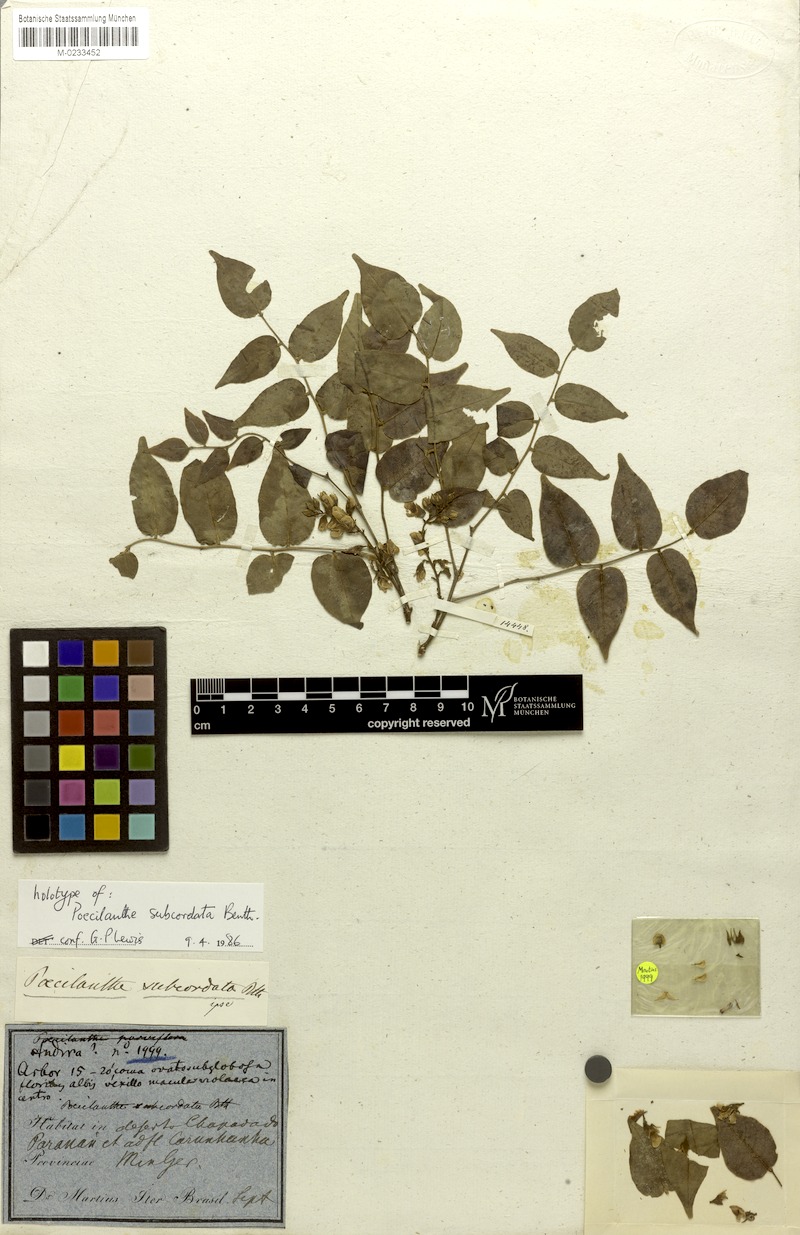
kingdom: Plantae
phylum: Tracheophyta
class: Magnoliopsida
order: Fabales
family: Fabaceae
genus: Poecilanthe
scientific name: Poecilanthe subcordata
